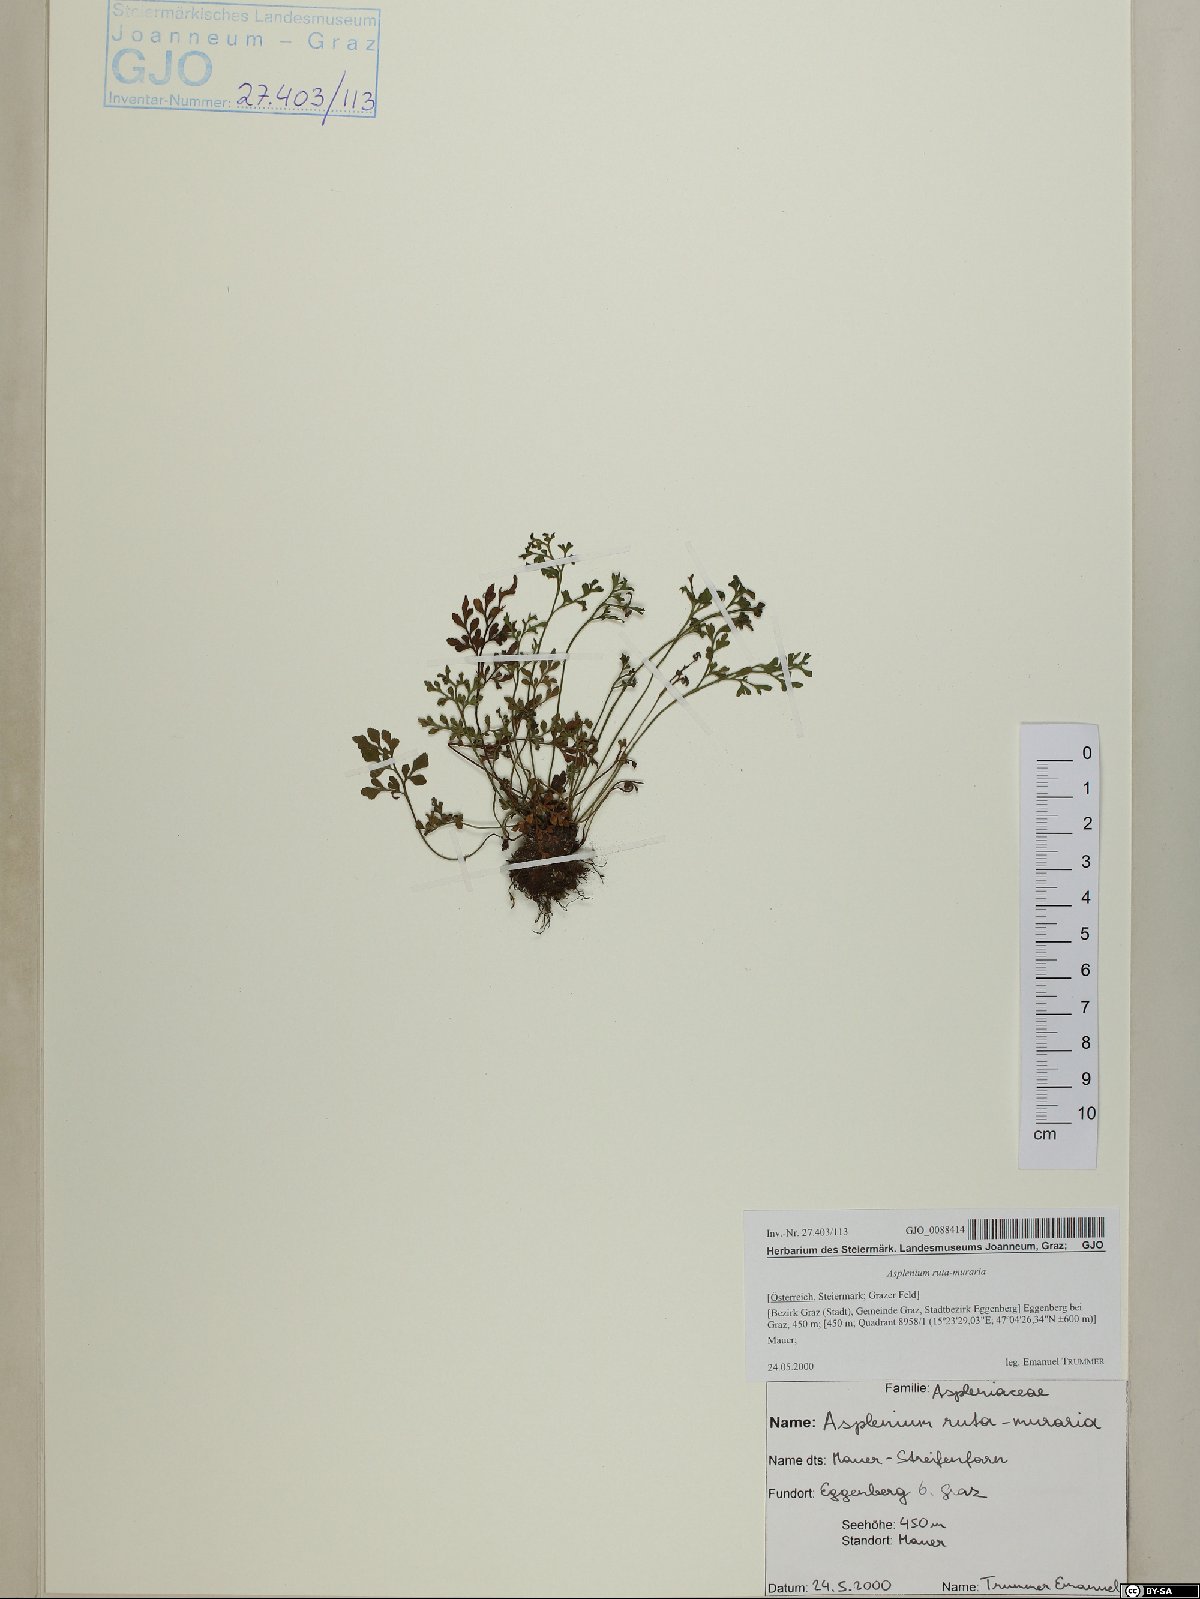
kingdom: Plantae
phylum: Tracheophyta
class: Polypodiopsida
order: Polypodiales
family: Aspleniaceae
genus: Asplenium
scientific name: Asplenium ruta-muraria
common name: Wall-rue
